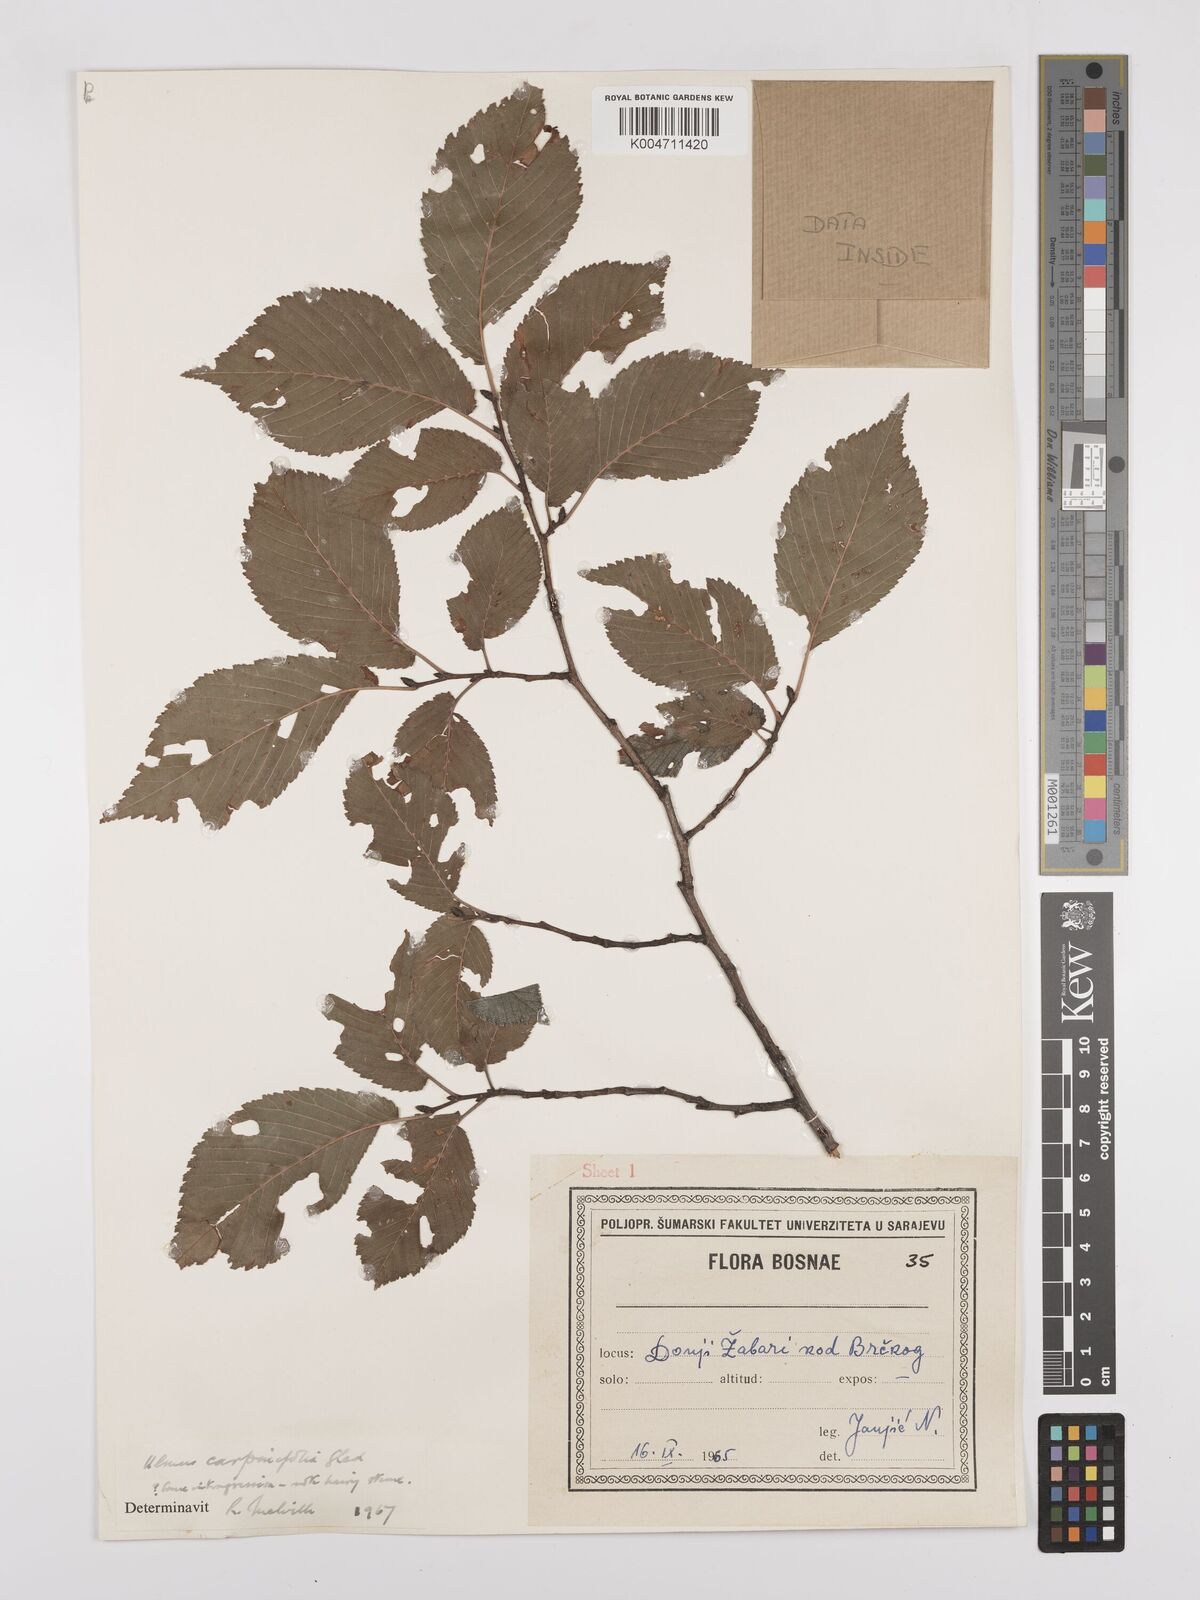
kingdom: Plantae
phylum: Tracheophyta
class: Magnoliopsida
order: Rosales
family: Ulmaceae
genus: Ulmus
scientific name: Ulmus minor
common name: Small-leaved elm
